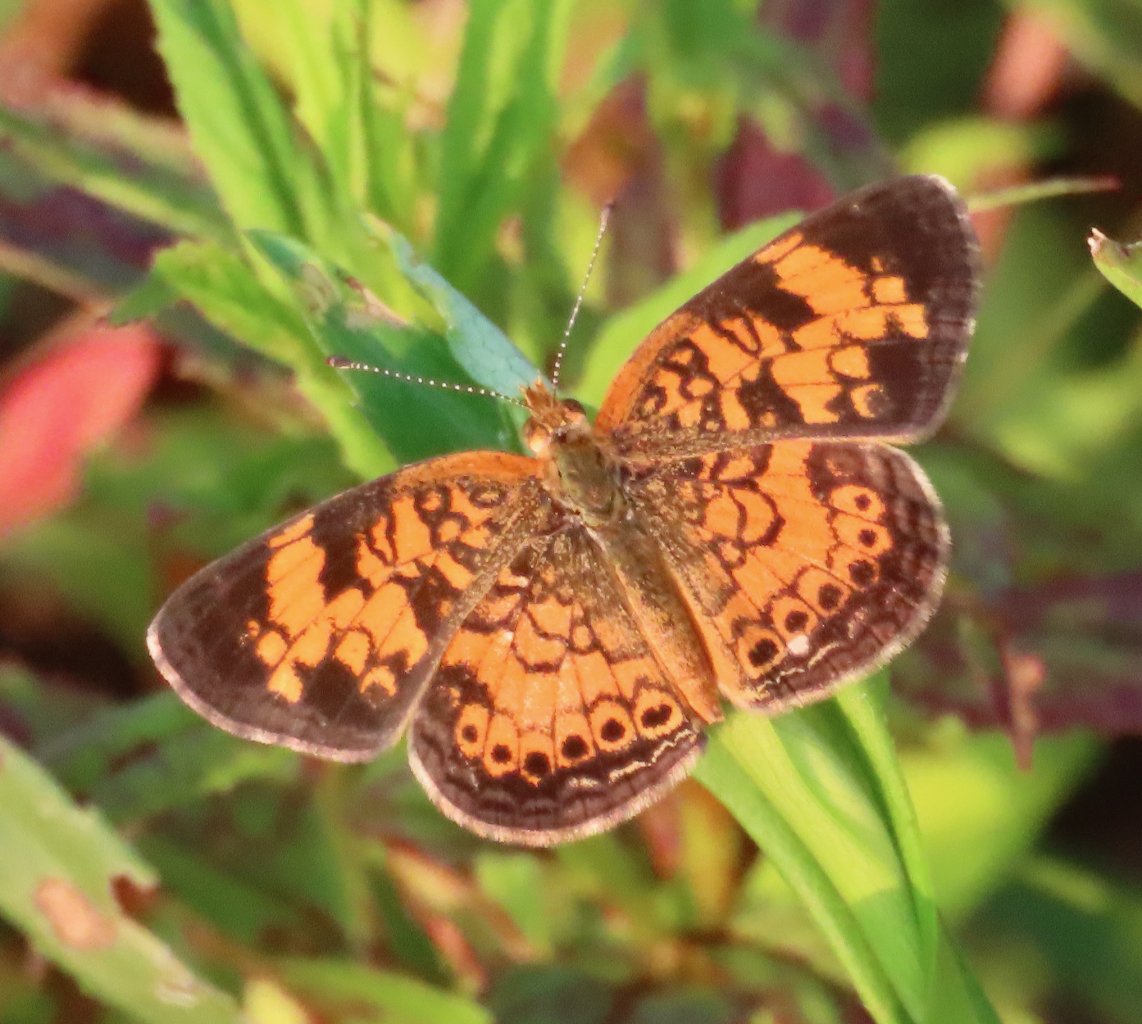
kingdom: Animalia
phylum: Arthropoda
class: Insecta
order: Lepidoptera
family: Nymphalidae
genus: Phyciodes
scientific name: Phyciodes tharos
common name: Pearl Crescent
